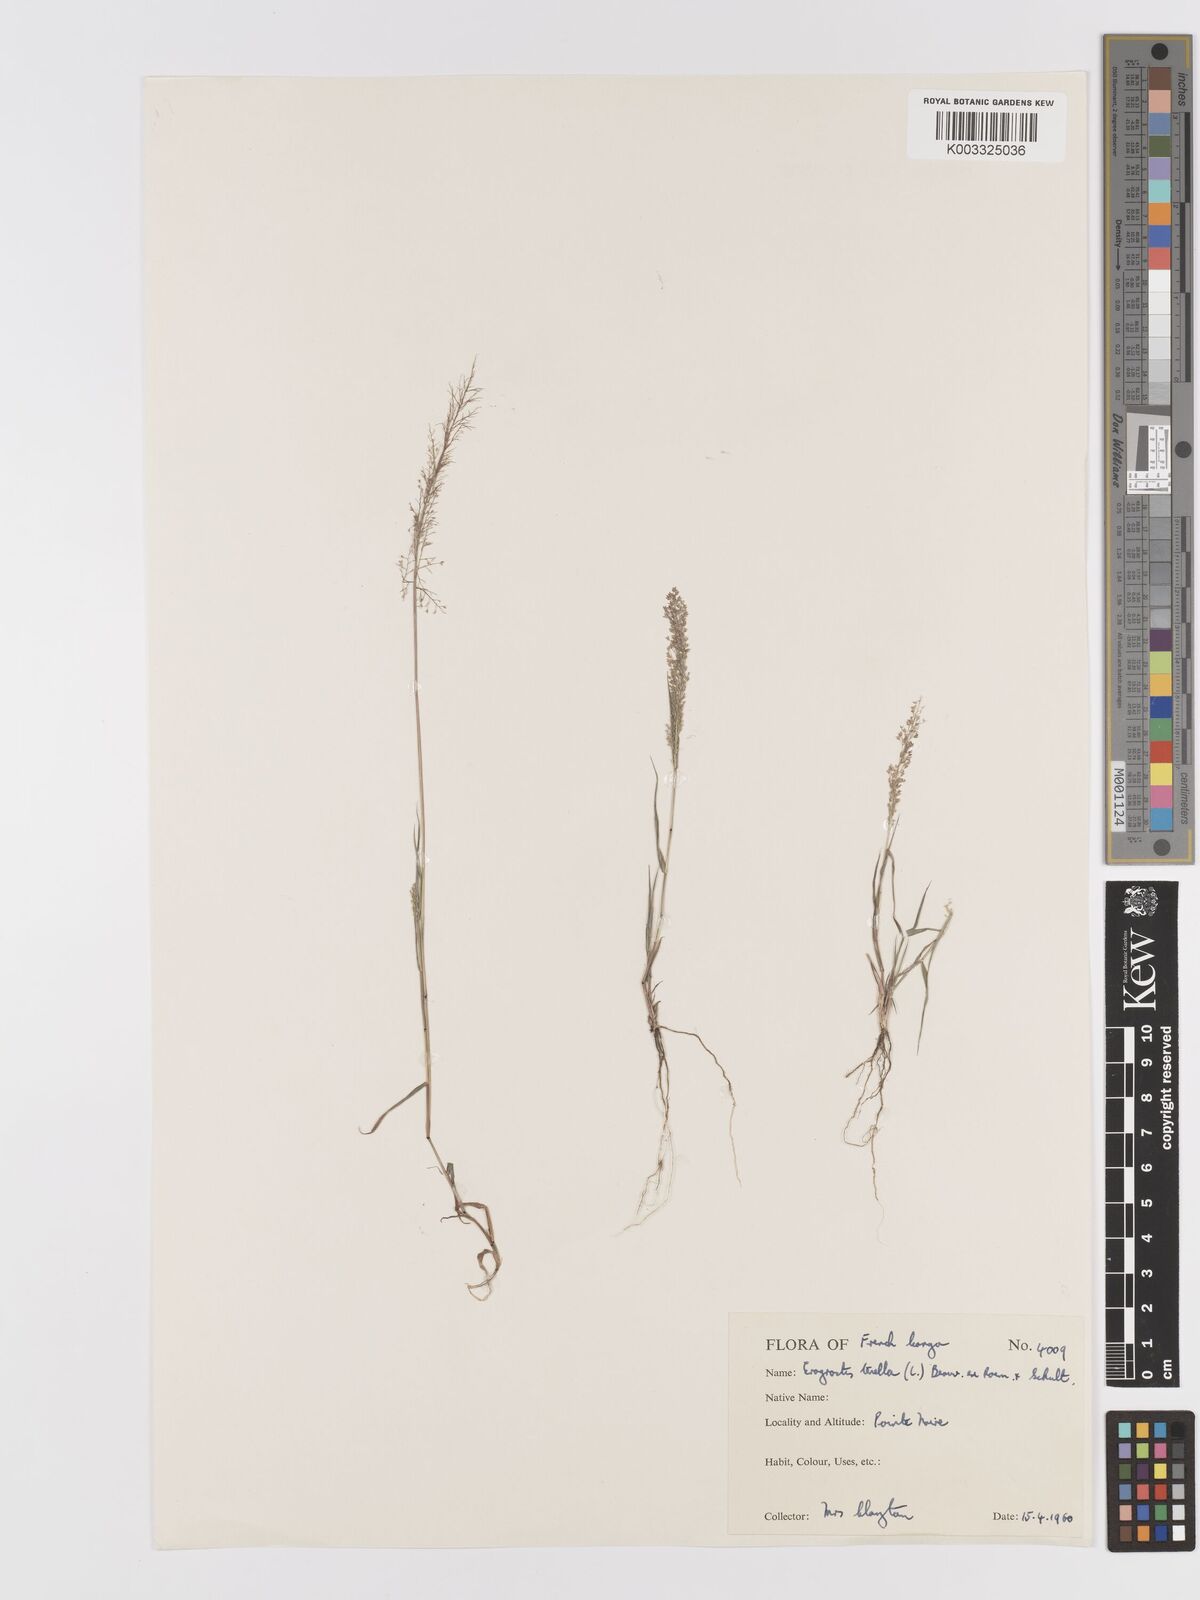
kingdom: Plantae
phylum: Tracheophyta
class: Liliopsida
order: Poales
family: Poaceae
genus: Eragrostis
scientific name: Eragrostis tenella
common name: Japanese lovegrass
